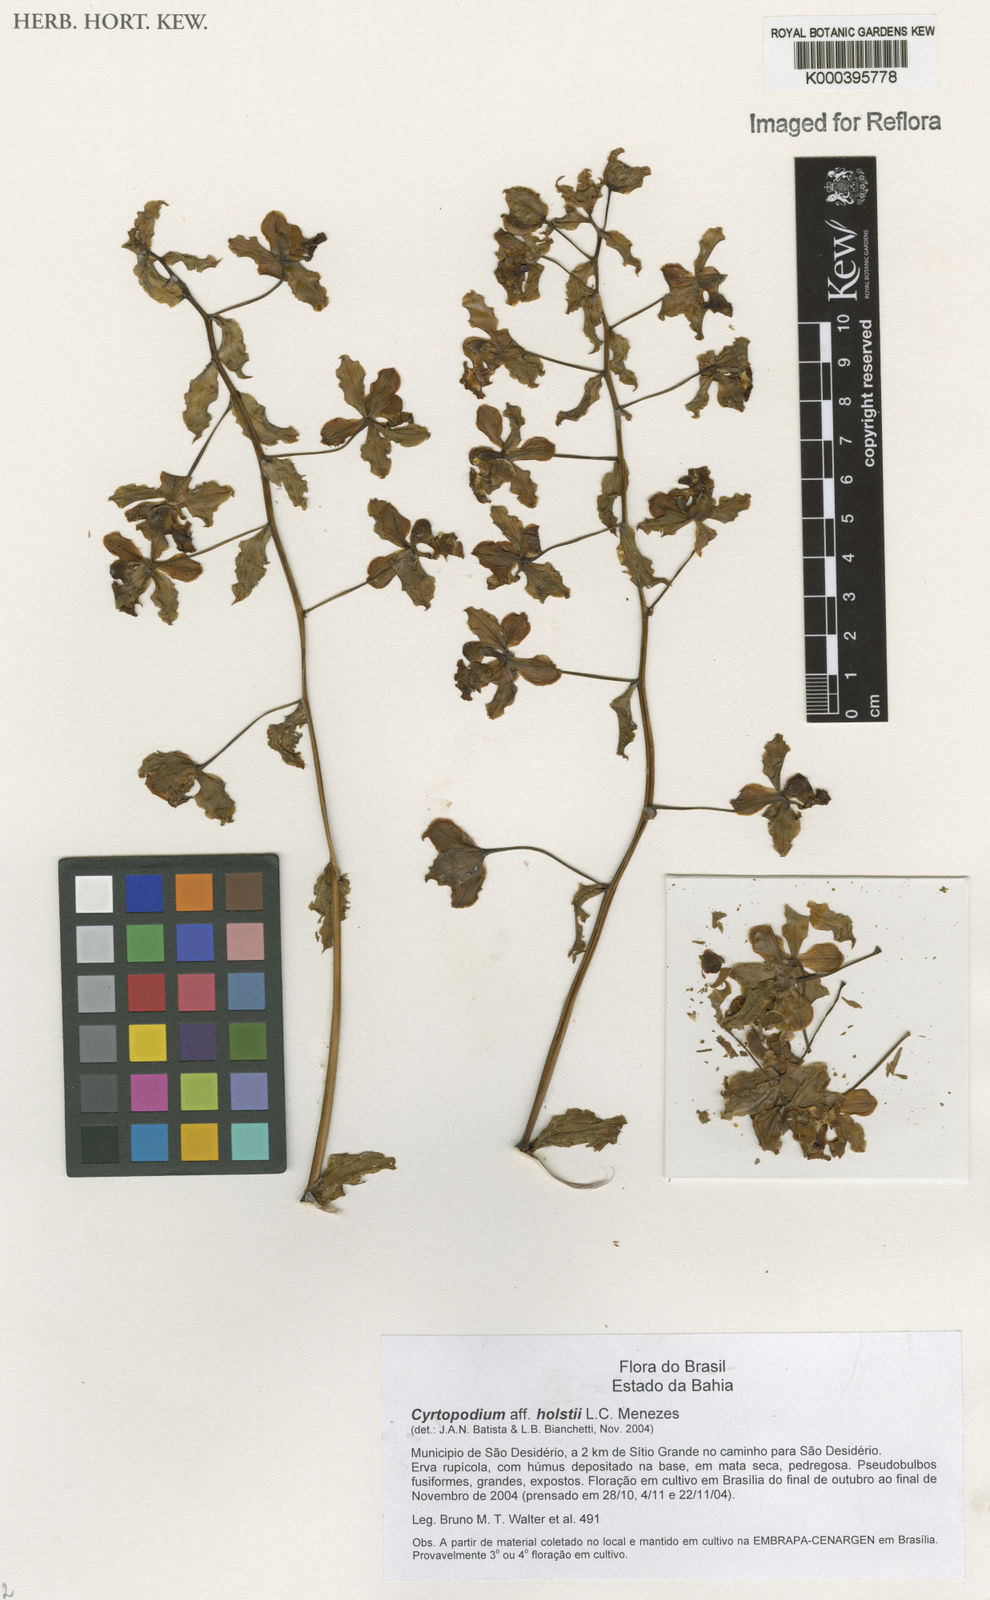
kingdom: Plantae
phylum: Tracheophyta
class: Liliopsida
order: Asparagales
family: Orchidaceae
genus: Cyrtopodium
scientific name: Cyrtopodium holstii
